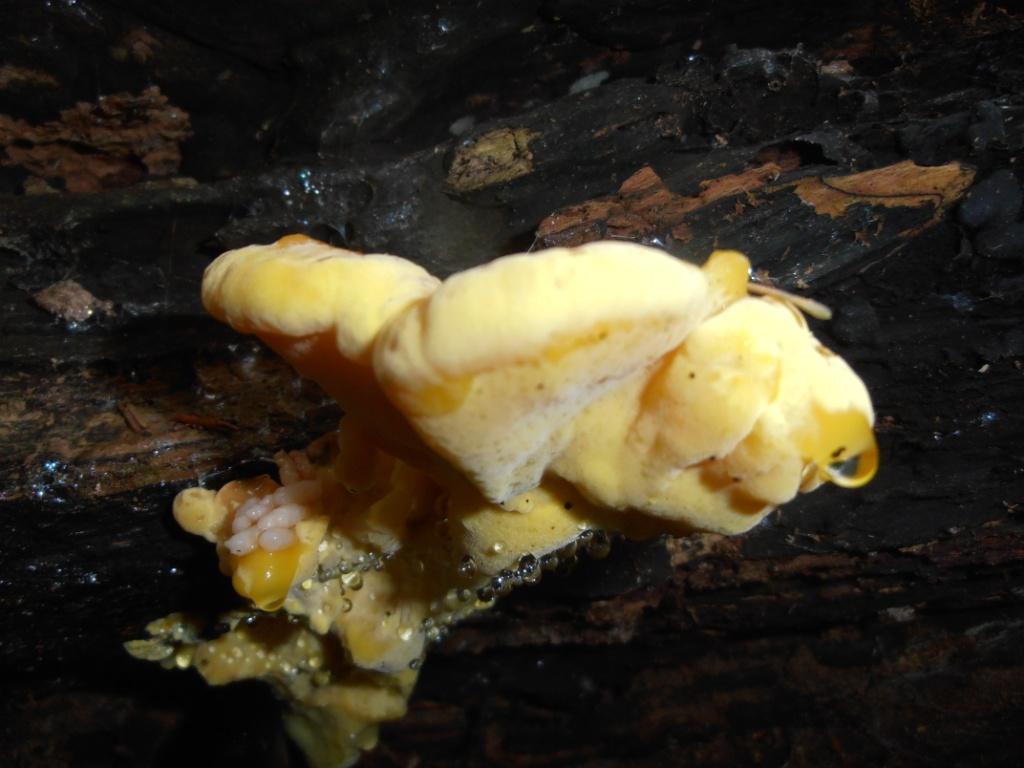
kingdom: Fungi
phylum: Basidiomycota
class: Agaricomycetes
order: Polyporales
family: Laetiporaceae
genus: Laetiporus
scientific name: Laetiporus sulphureus
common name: svovlporesvamp
